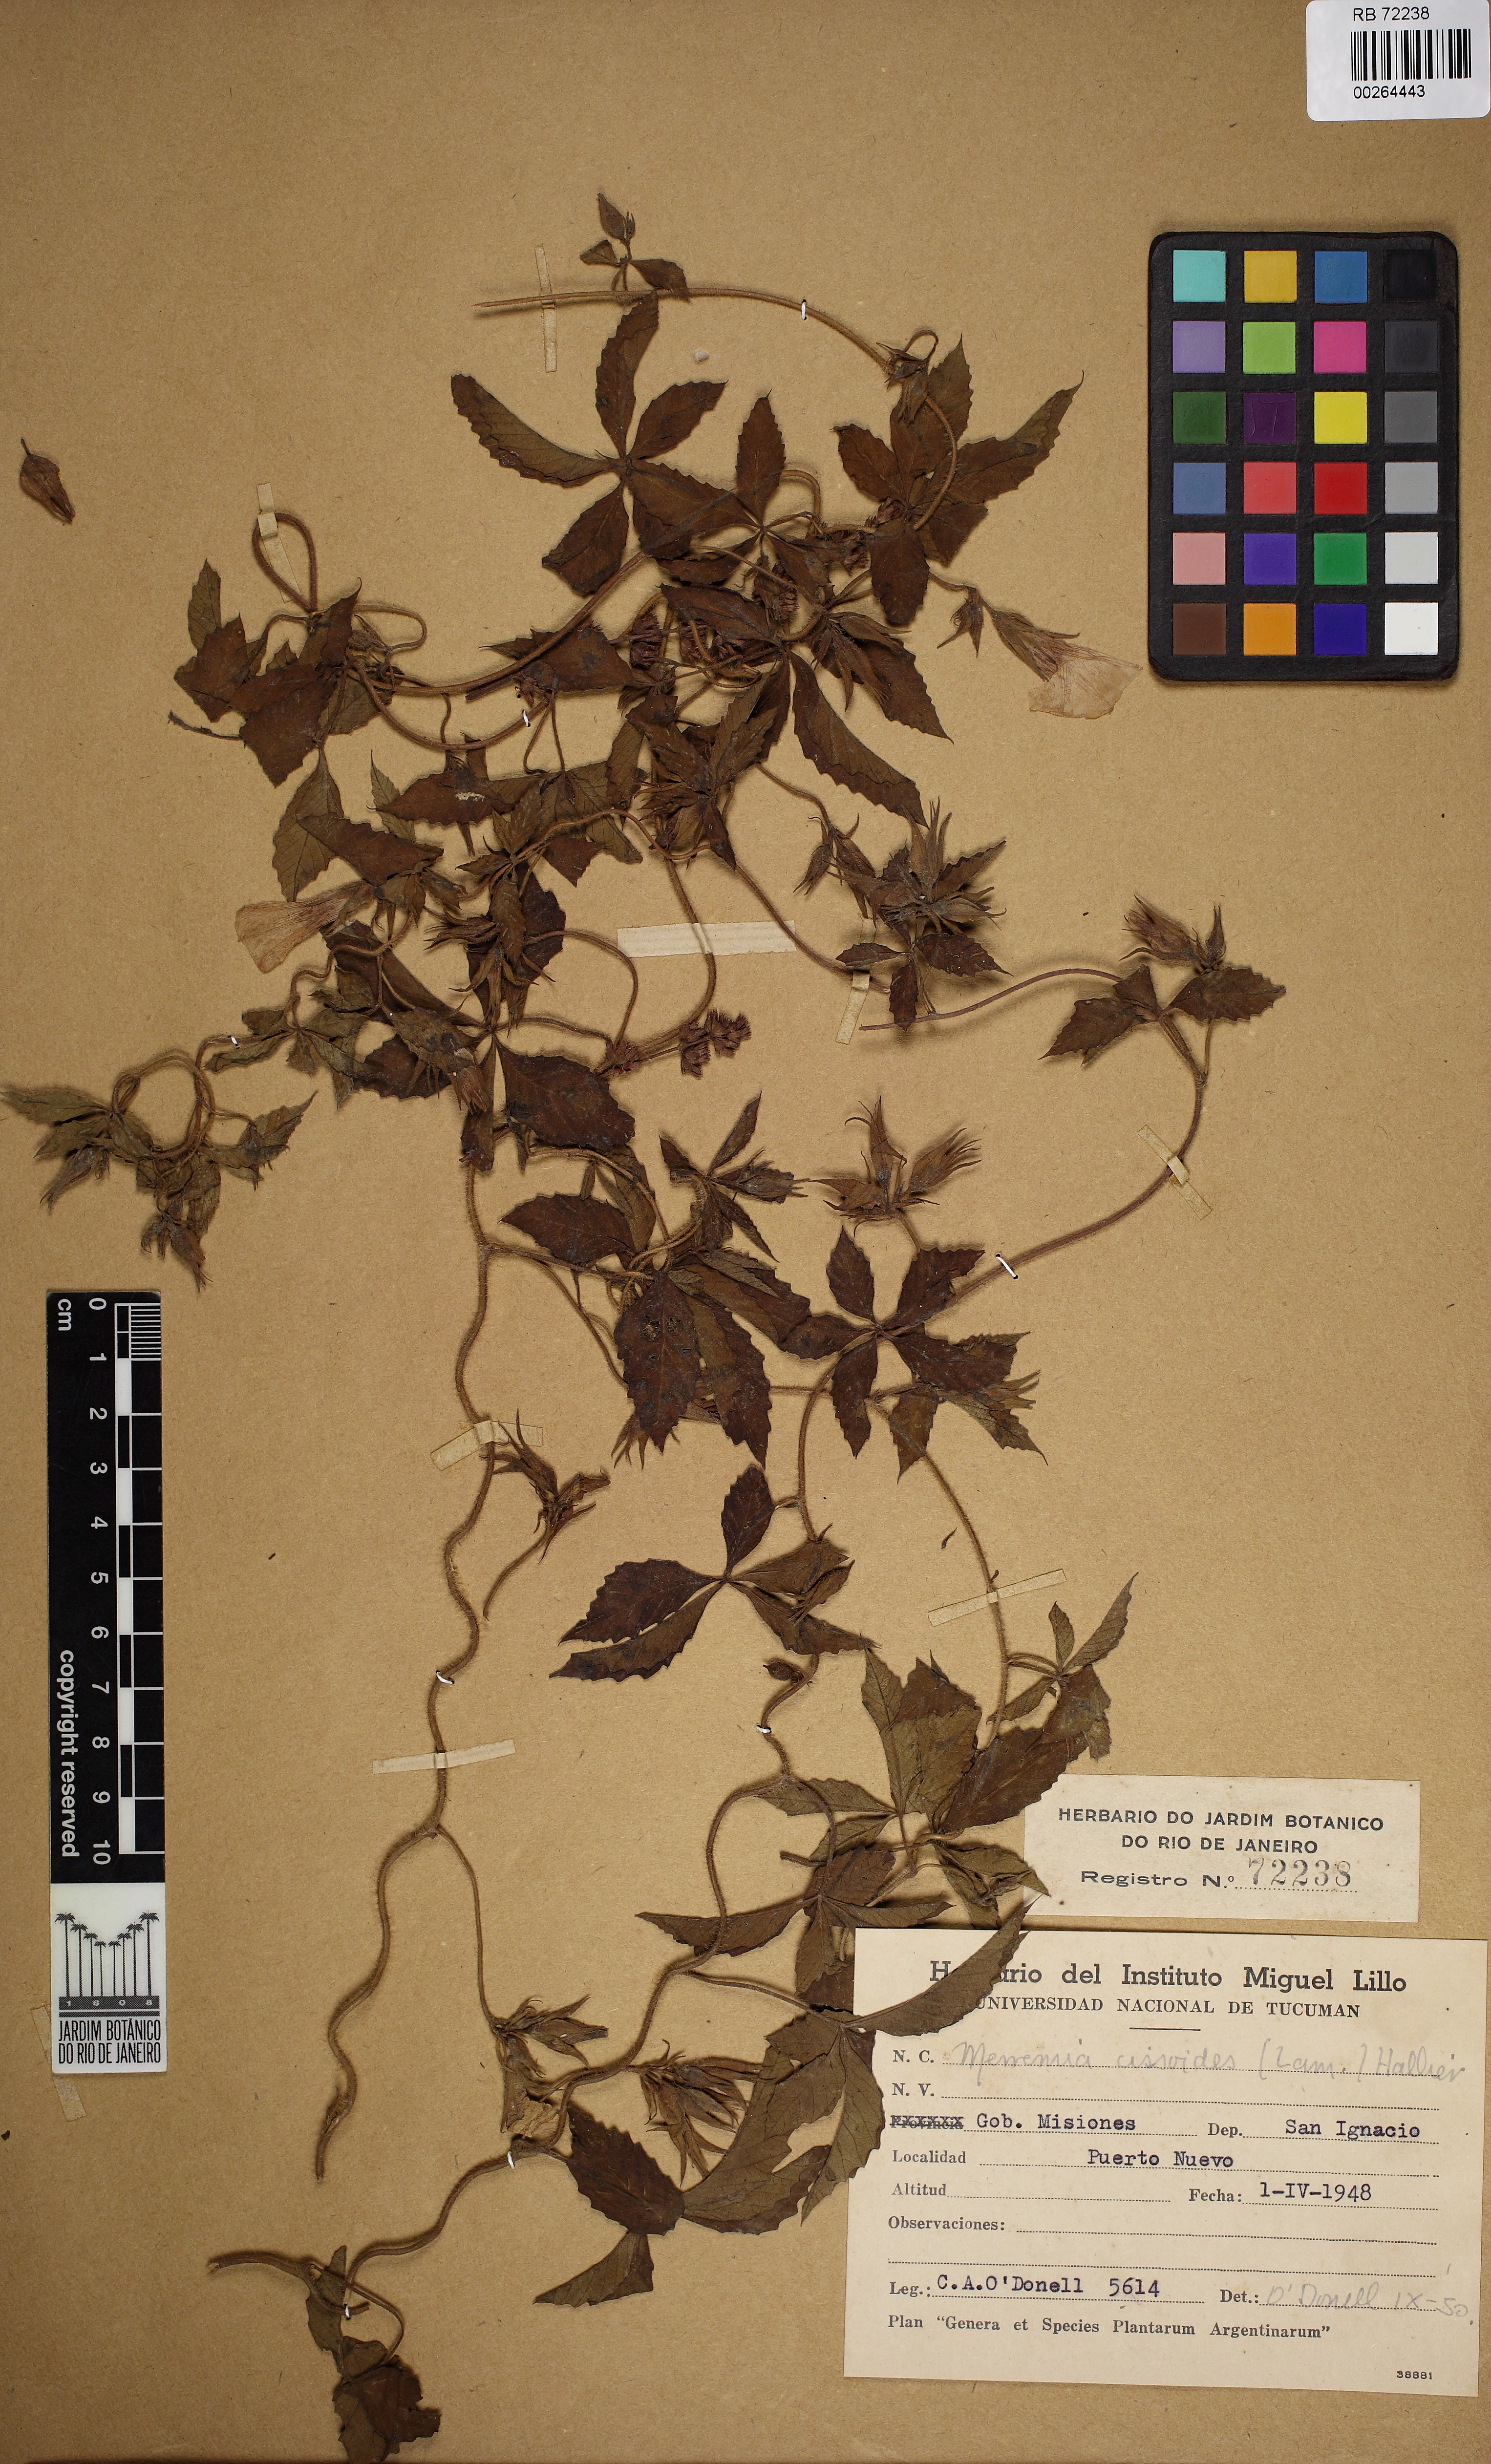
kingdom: Plantae
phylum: Tracheophyta
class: Magnoliopsida
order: Solanales
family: Convolvulaceae
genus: Distimake
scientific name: Distimake cissoides
